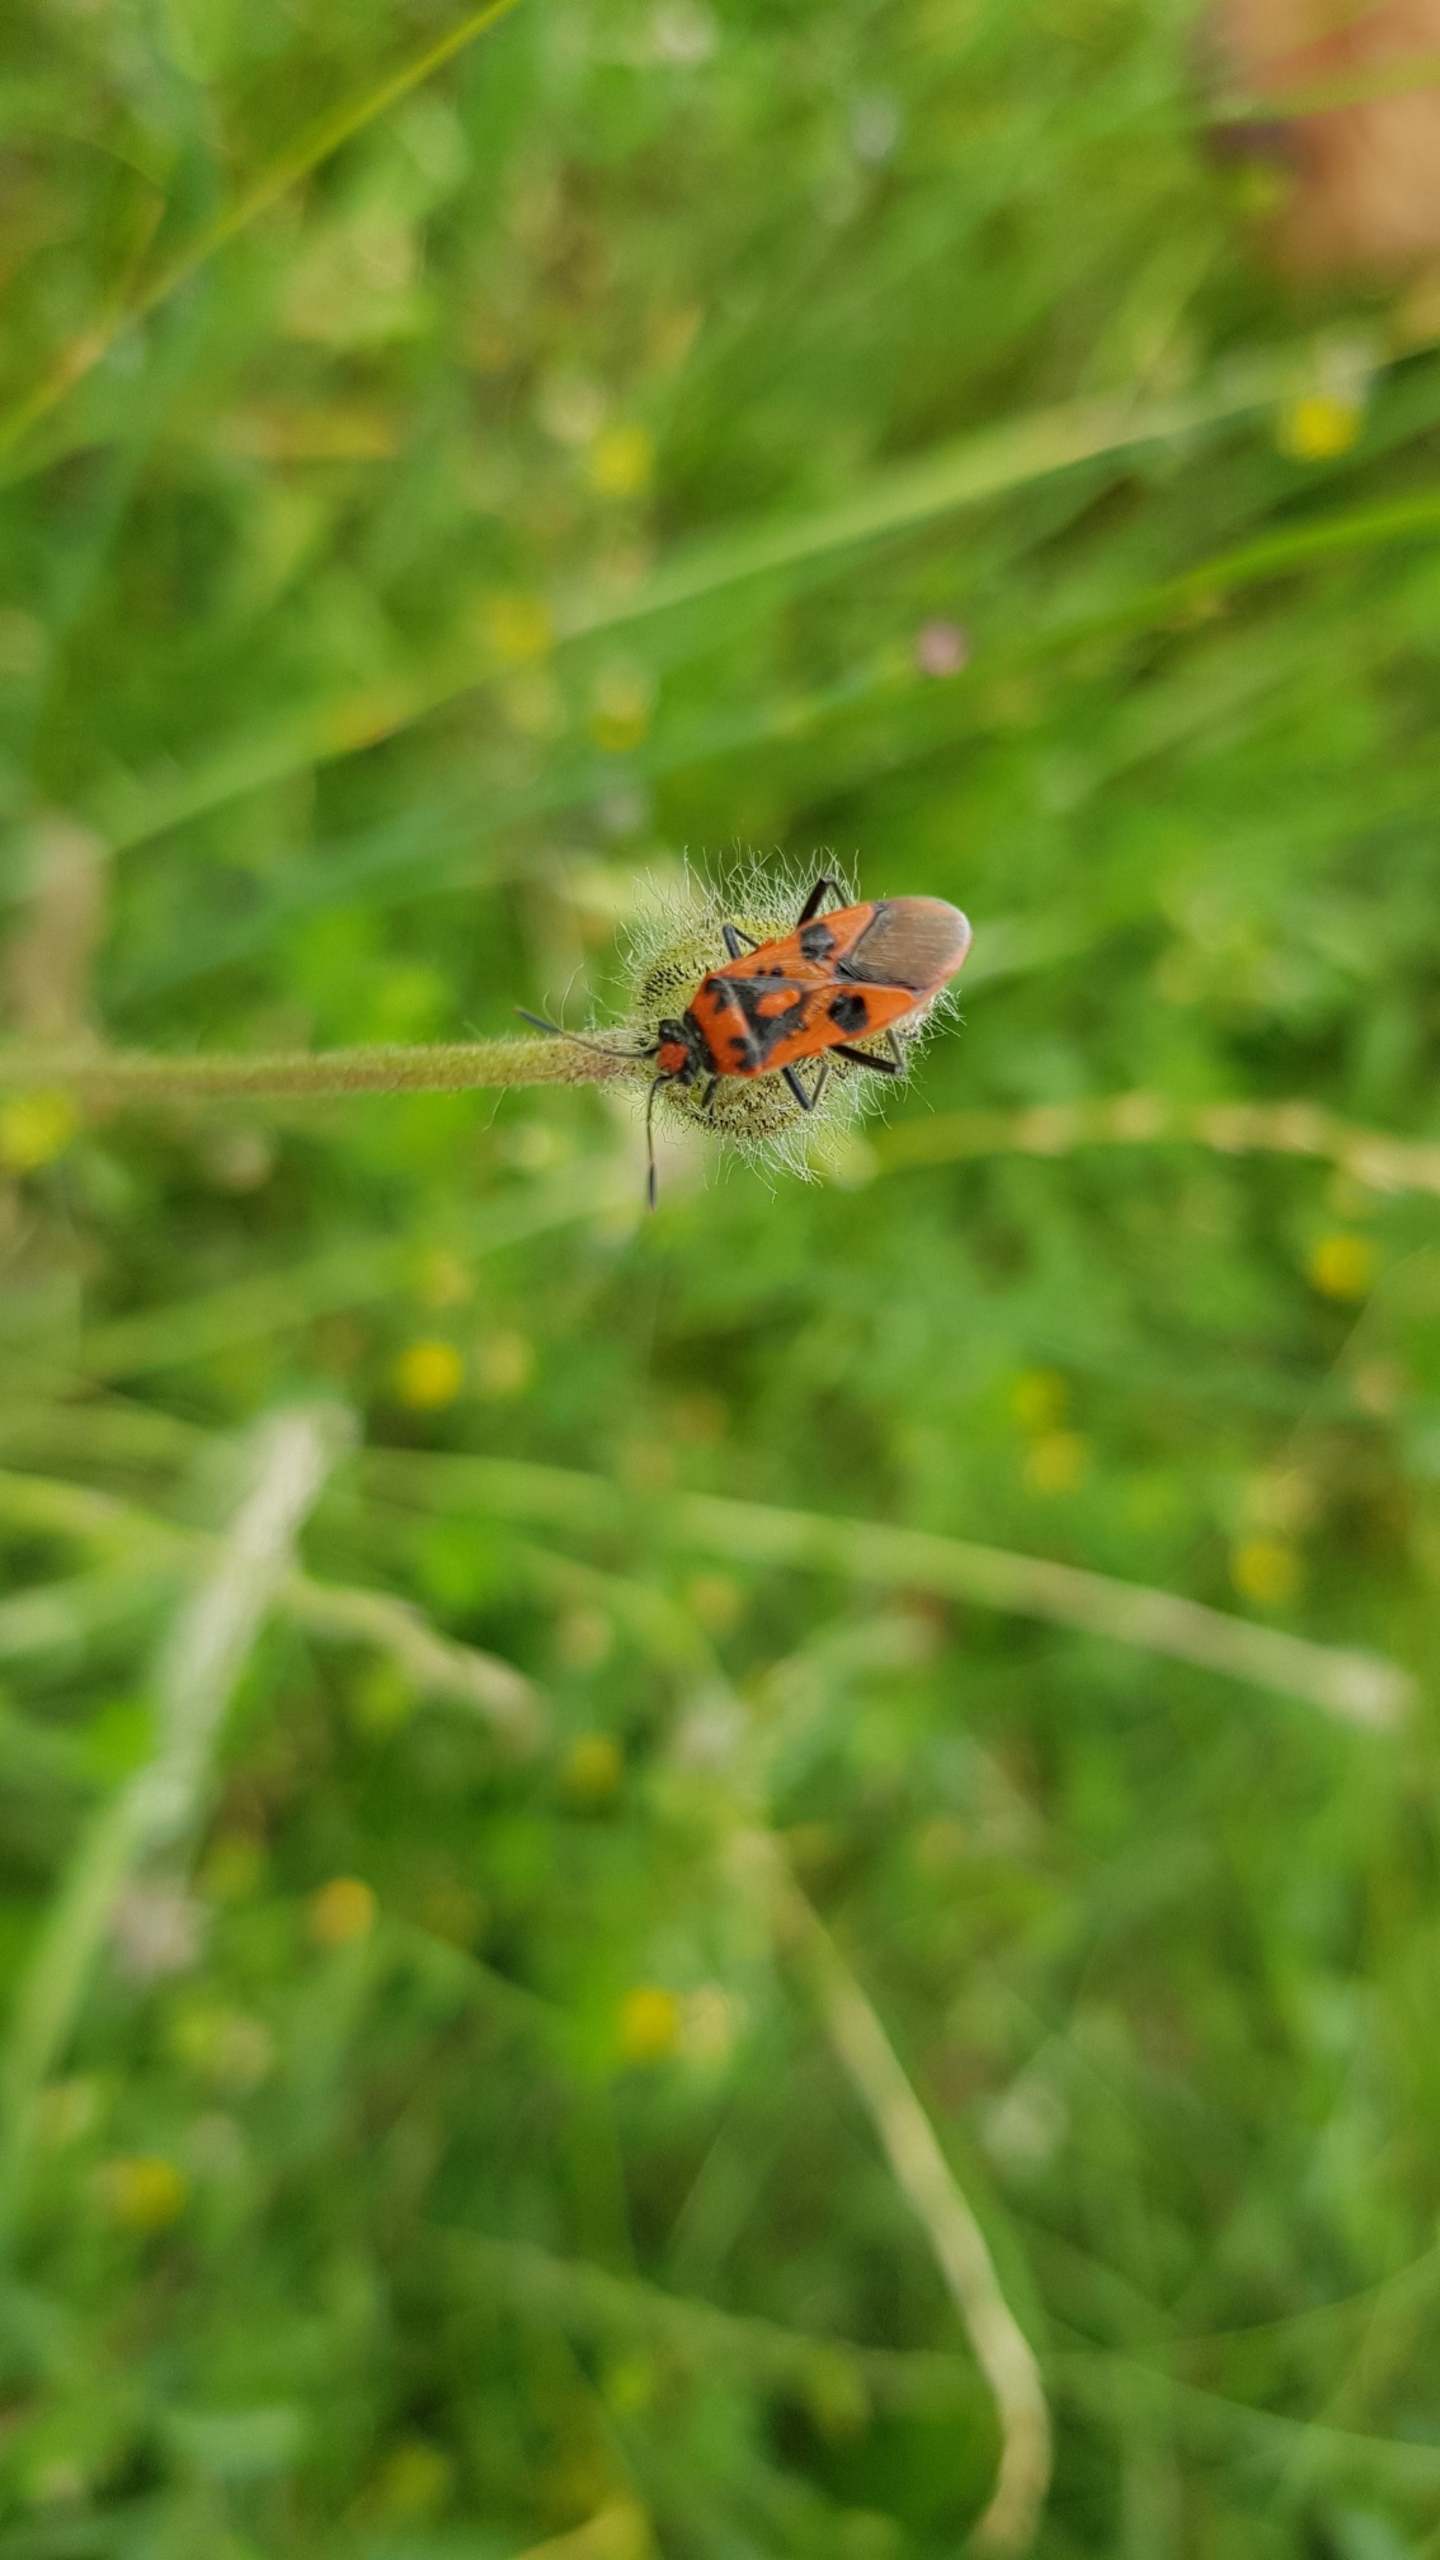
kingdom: Animalia
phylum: Arthropoda
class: Insecta
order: Hemiptera
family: Rhopalidae
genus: Corizus
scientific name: Corizus hyoscyami
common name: Rød kanttæge
